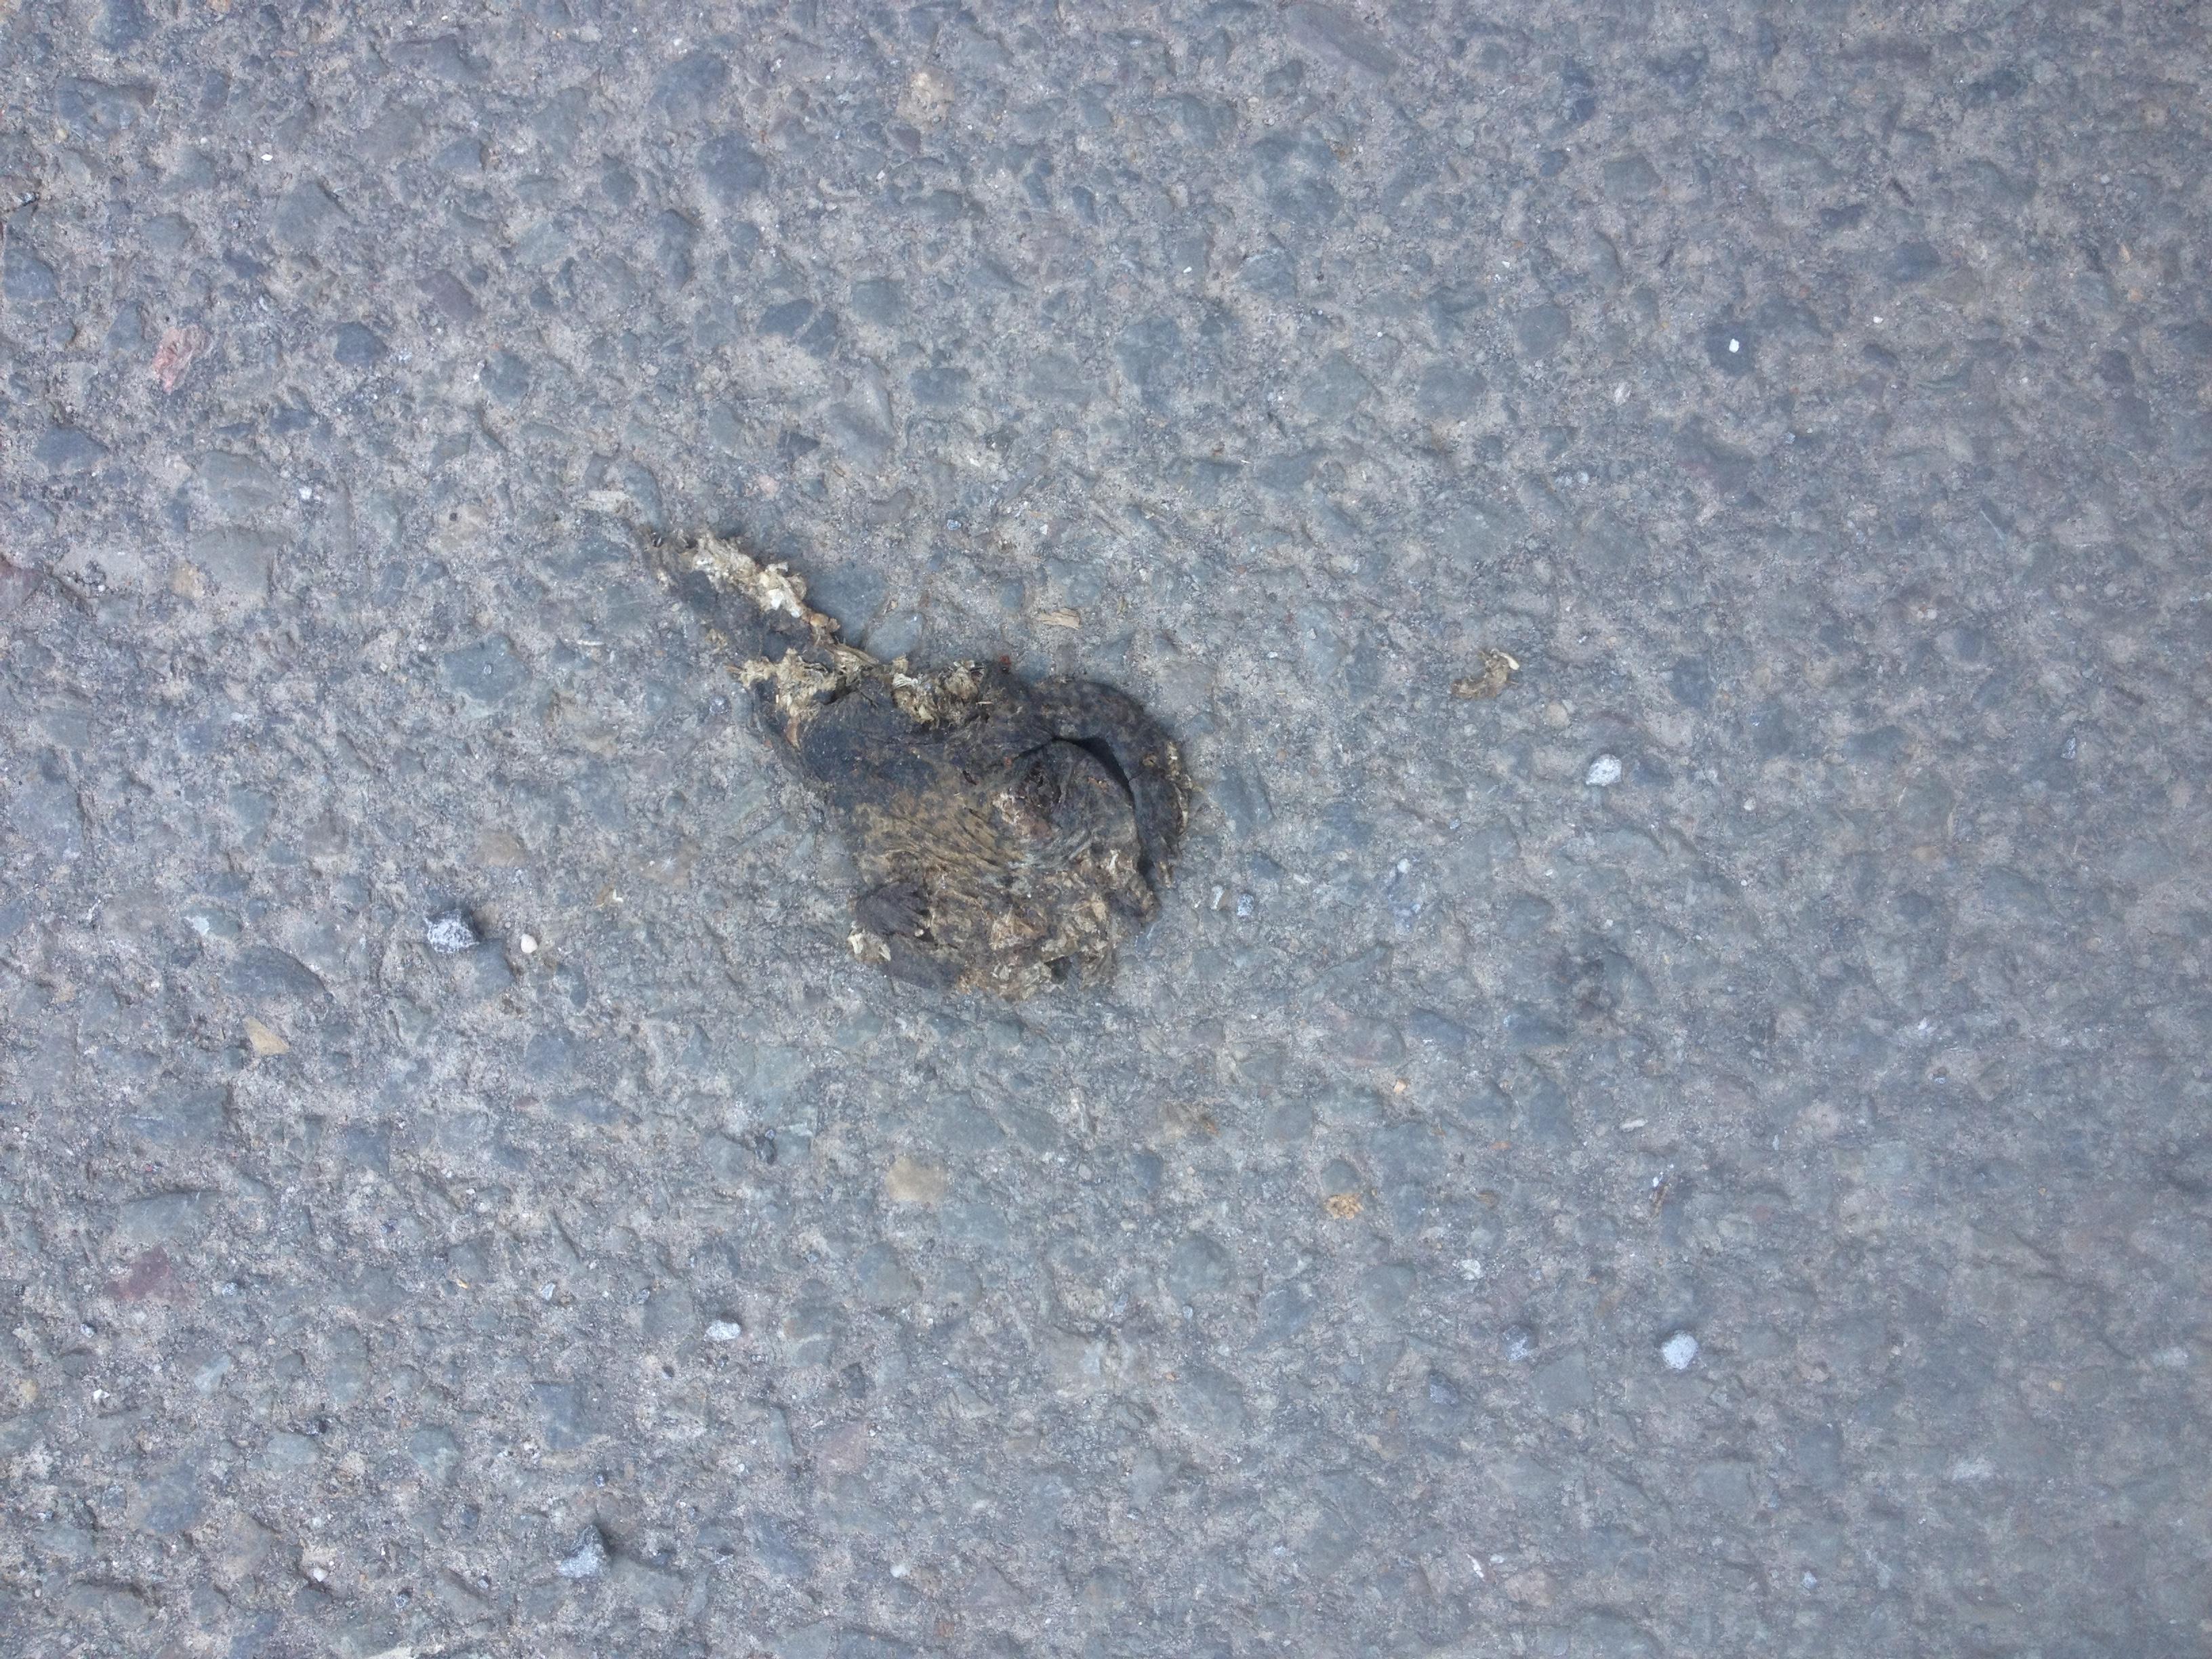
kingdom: Animalia
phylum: Chordata
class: Amphibia
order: Anura
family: Bufonidae
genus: Bufo
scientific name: Bufo bufo
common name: Common toad
